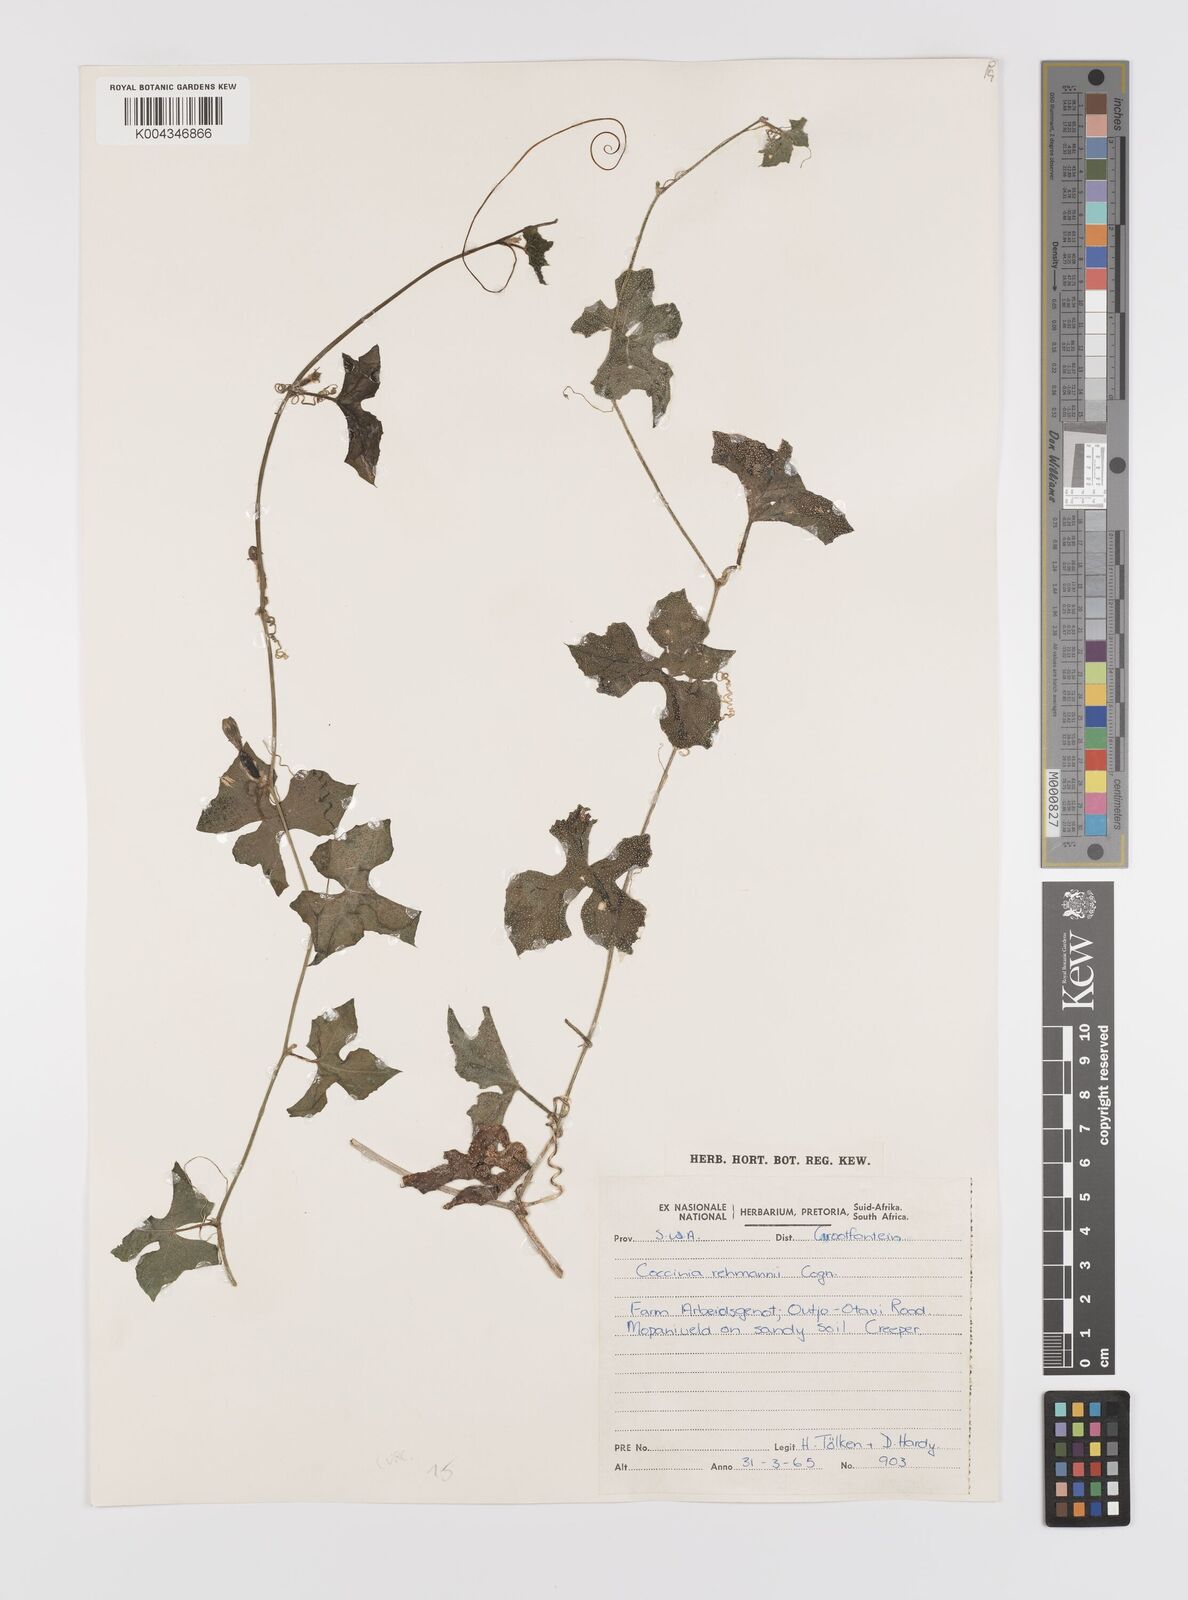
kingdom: Plantae
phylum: Tracheophyta
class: Magnoliopsida
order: Cucurbitales
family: Cucurbitaceae
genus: Coccinia
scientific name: Coccinia rehmannii
